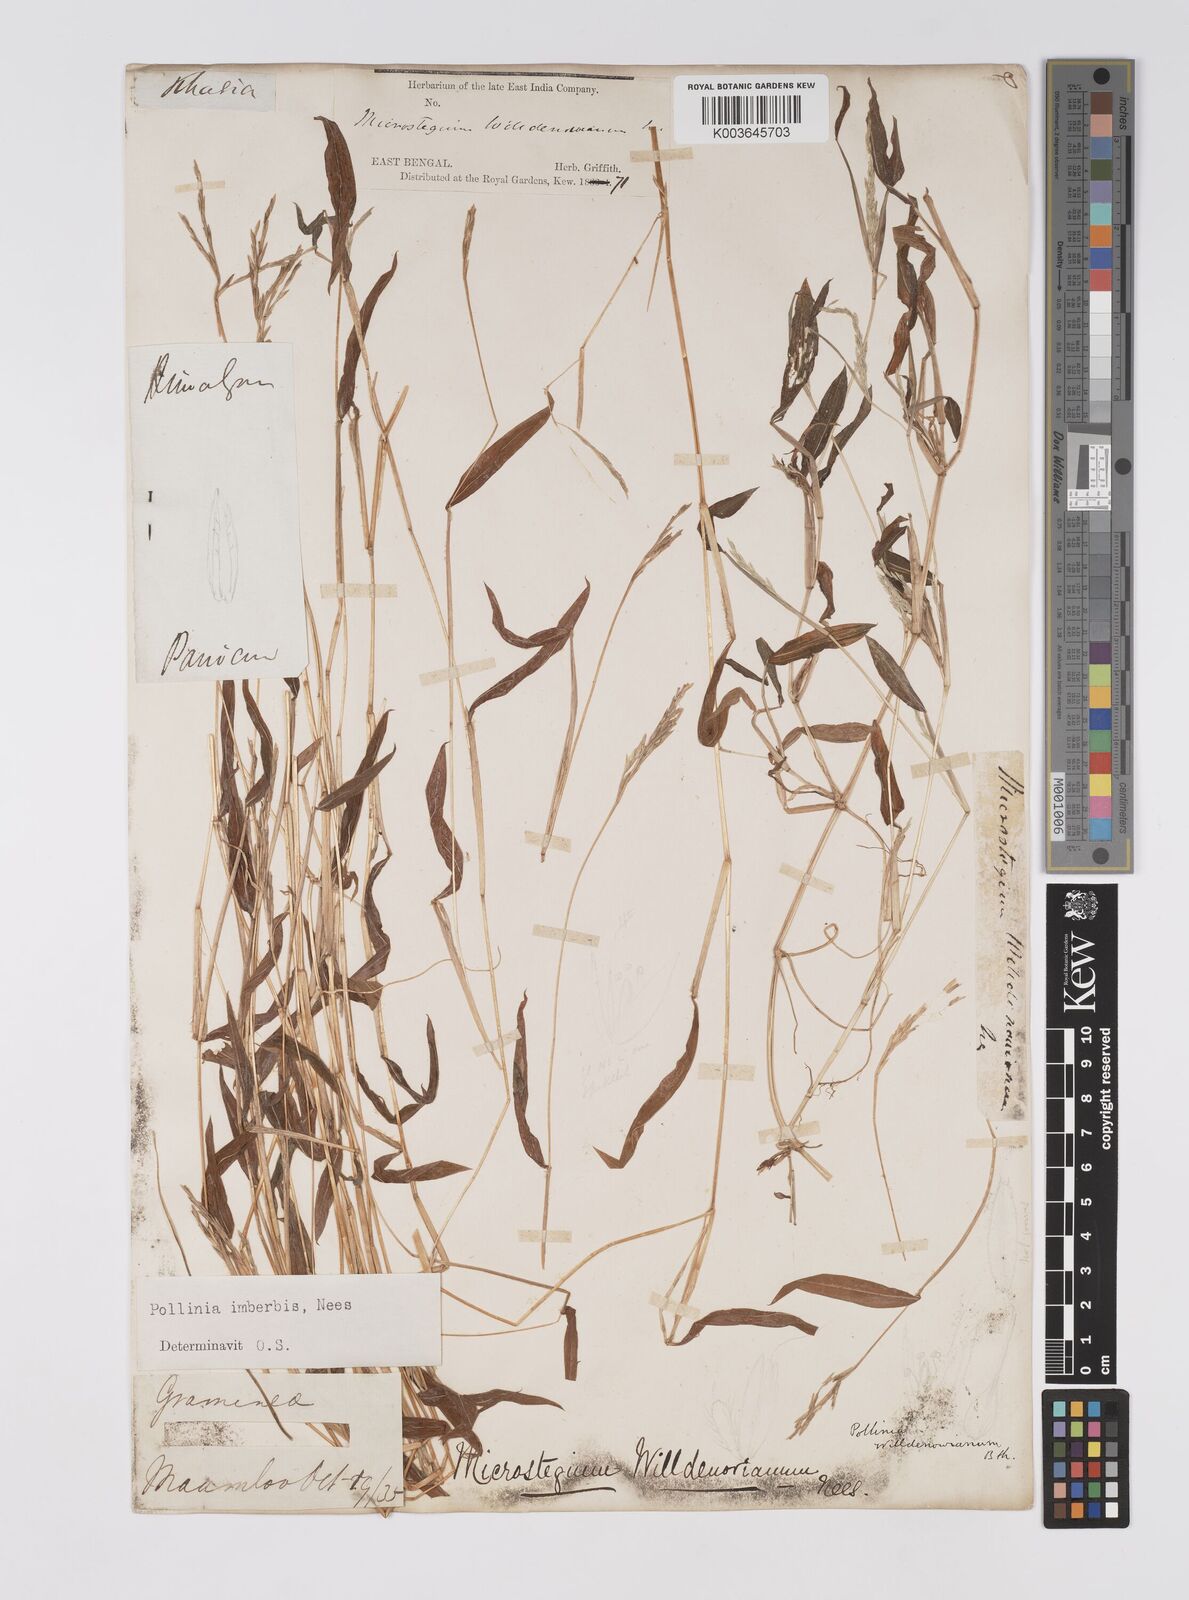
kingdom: Plantae
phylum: Tracheophyta
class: Liliopsida
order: Poales
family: Poaceae
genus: Microstegium
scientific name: Microstegium vimineum
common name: Japanese stiltgrass
